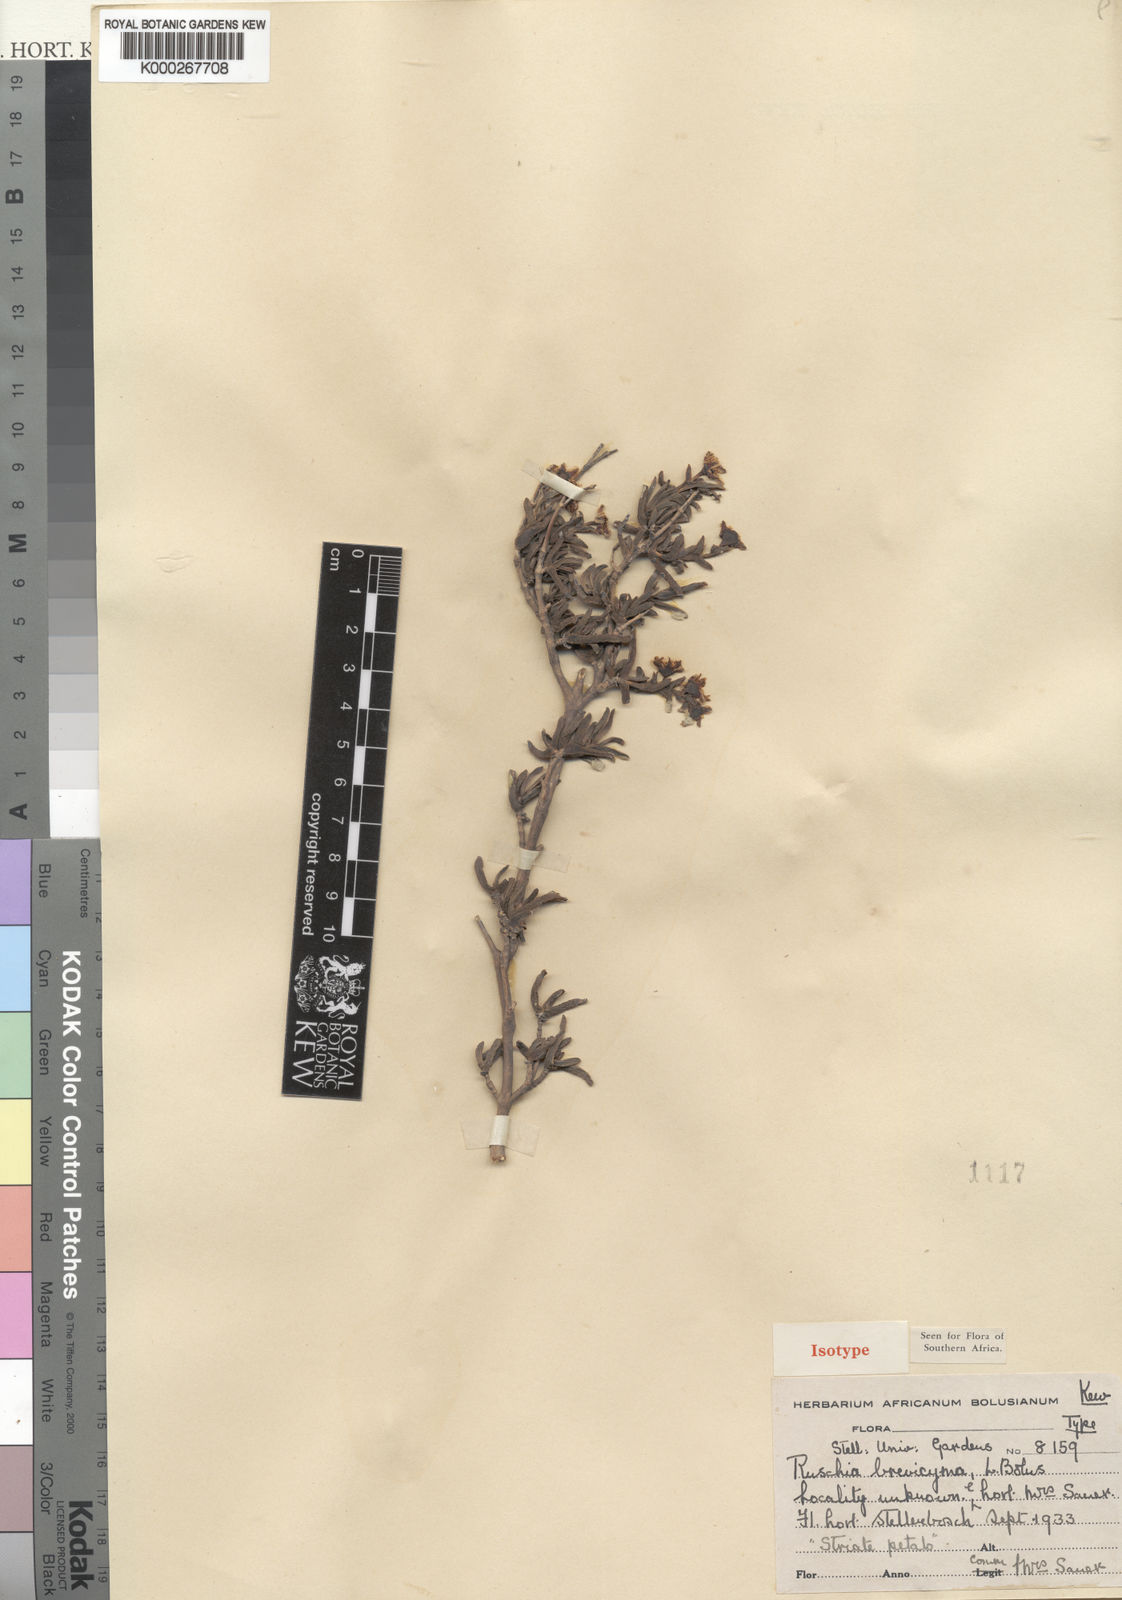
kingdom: Plantae
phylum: Tracheophyta
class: Magnoliopsida
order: Caryophyllales
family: Aizoaceae
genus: Ruschia
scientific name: Ruschia brevicyma
